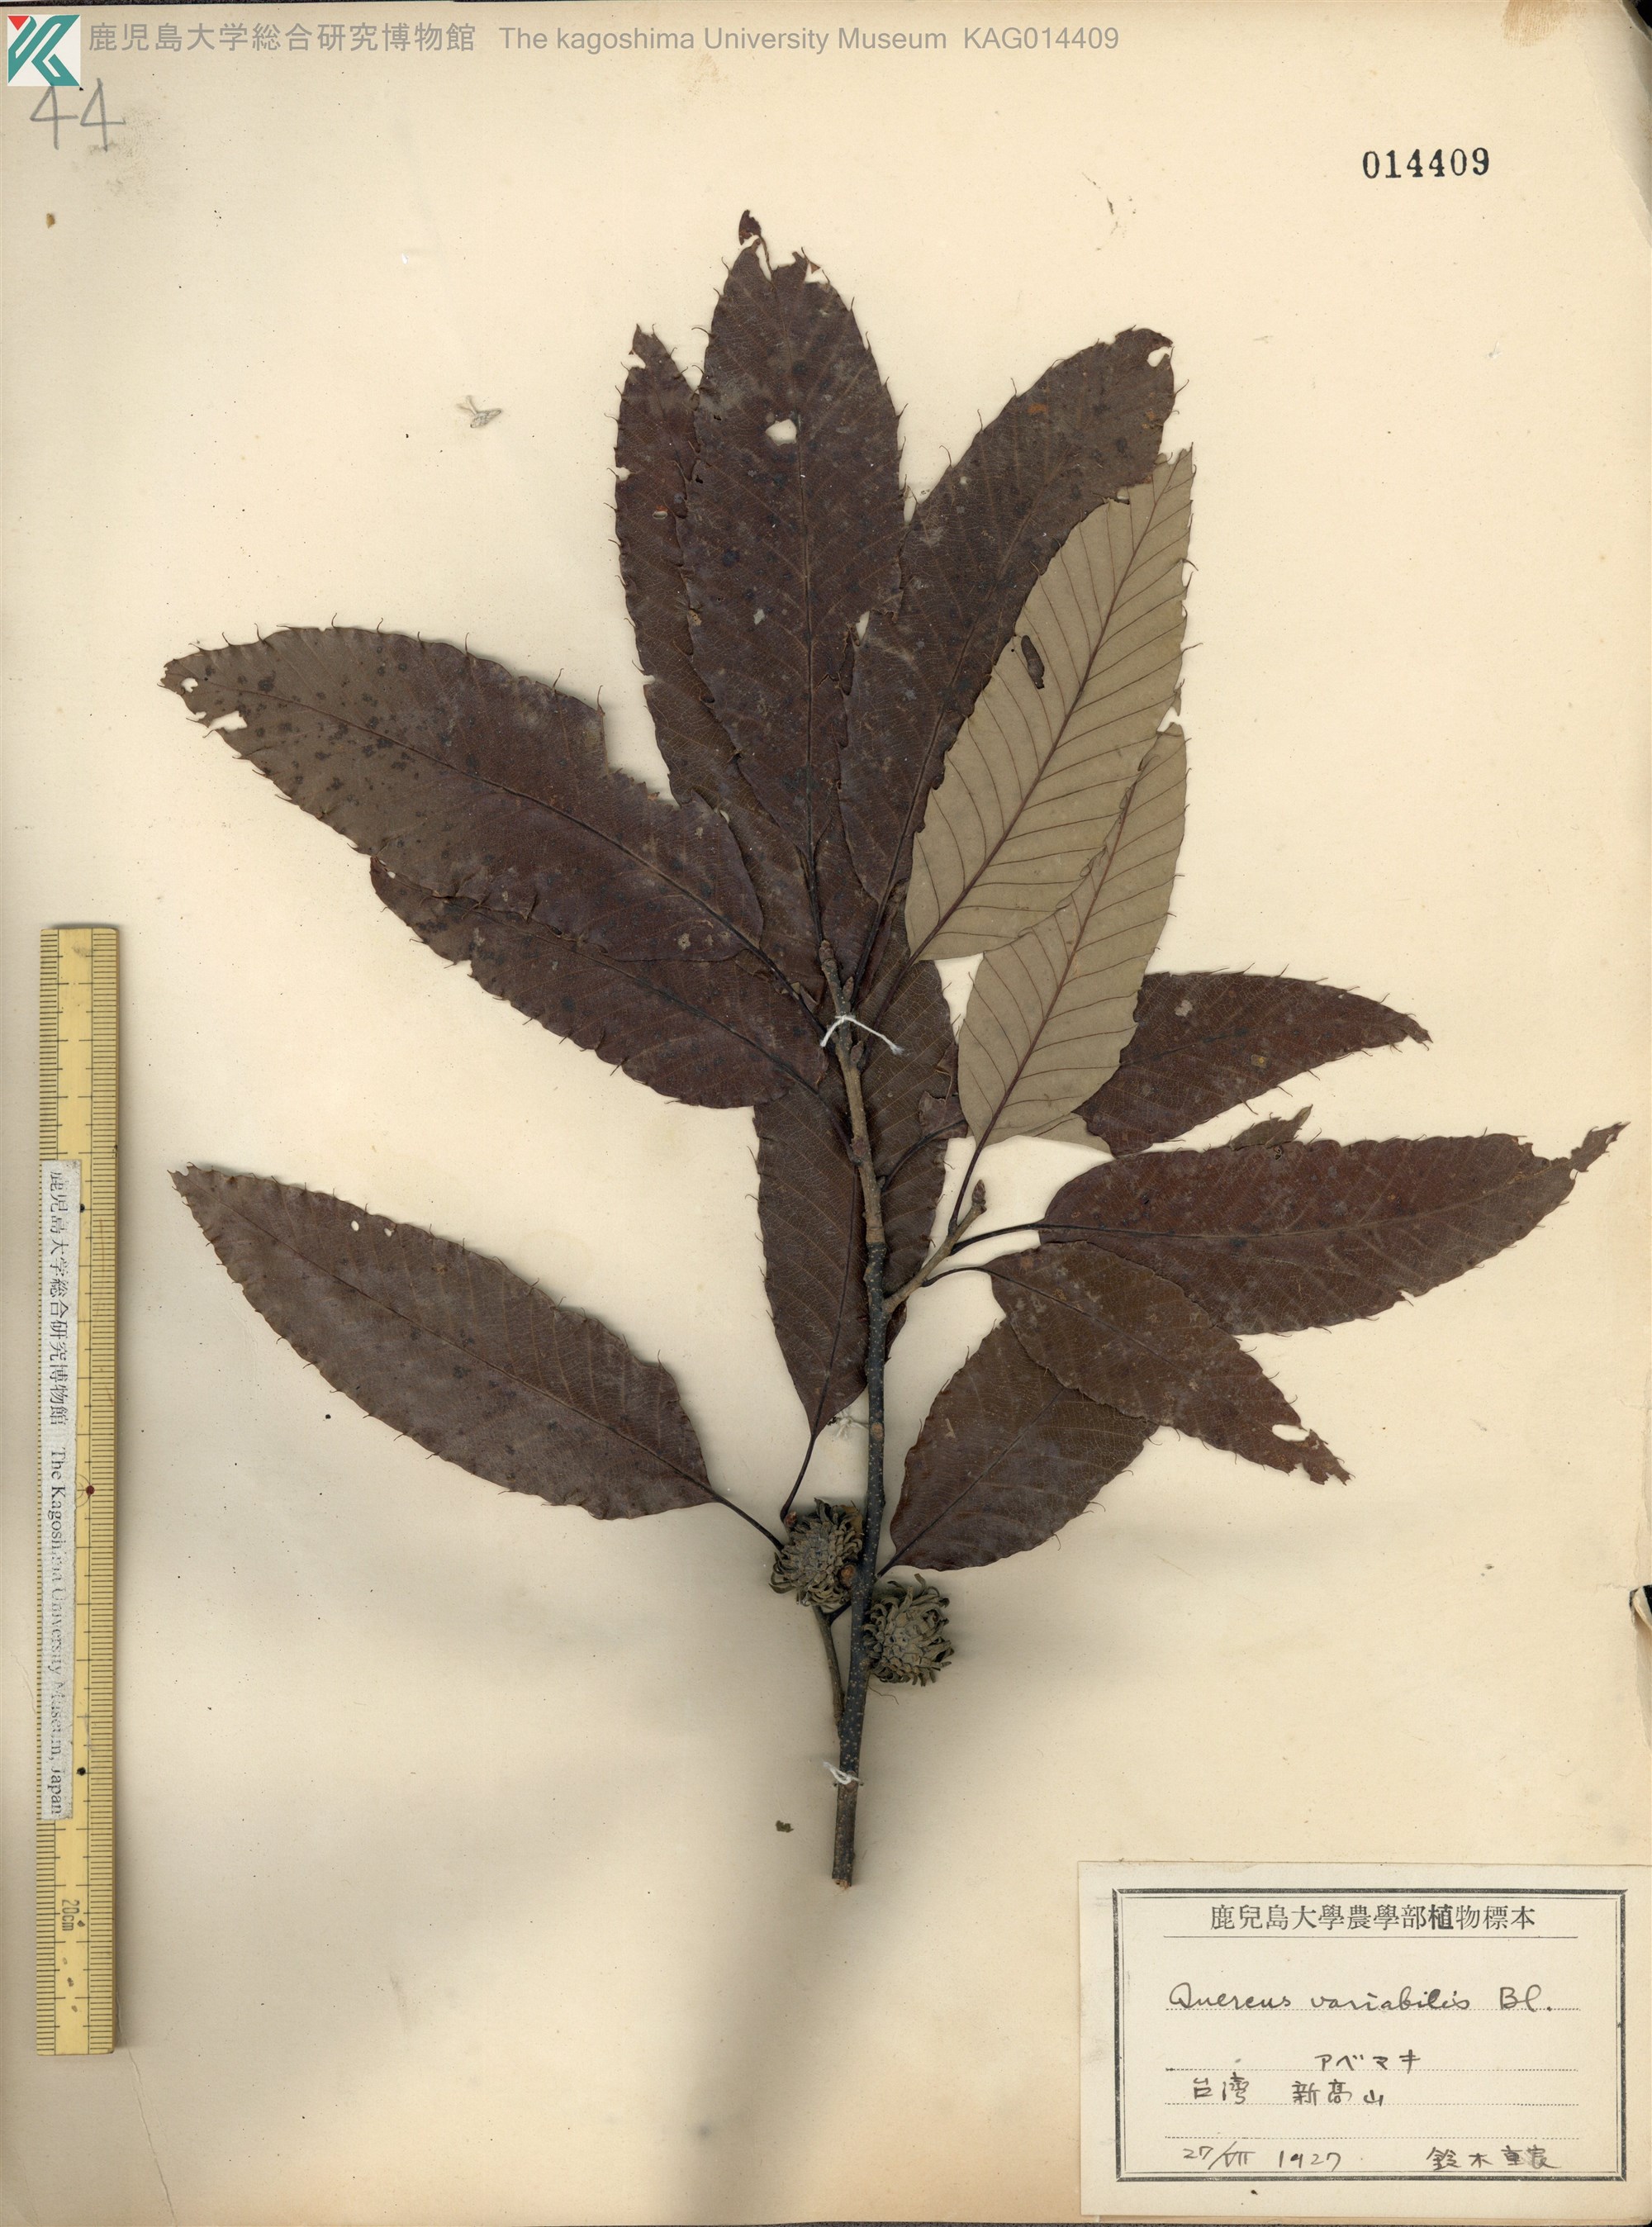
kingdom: Plantae
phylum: Tracheophyta
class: Magnoliopsida
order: Fagales
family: Fagaceae
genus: Quercus
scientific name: Quercus variabilis
